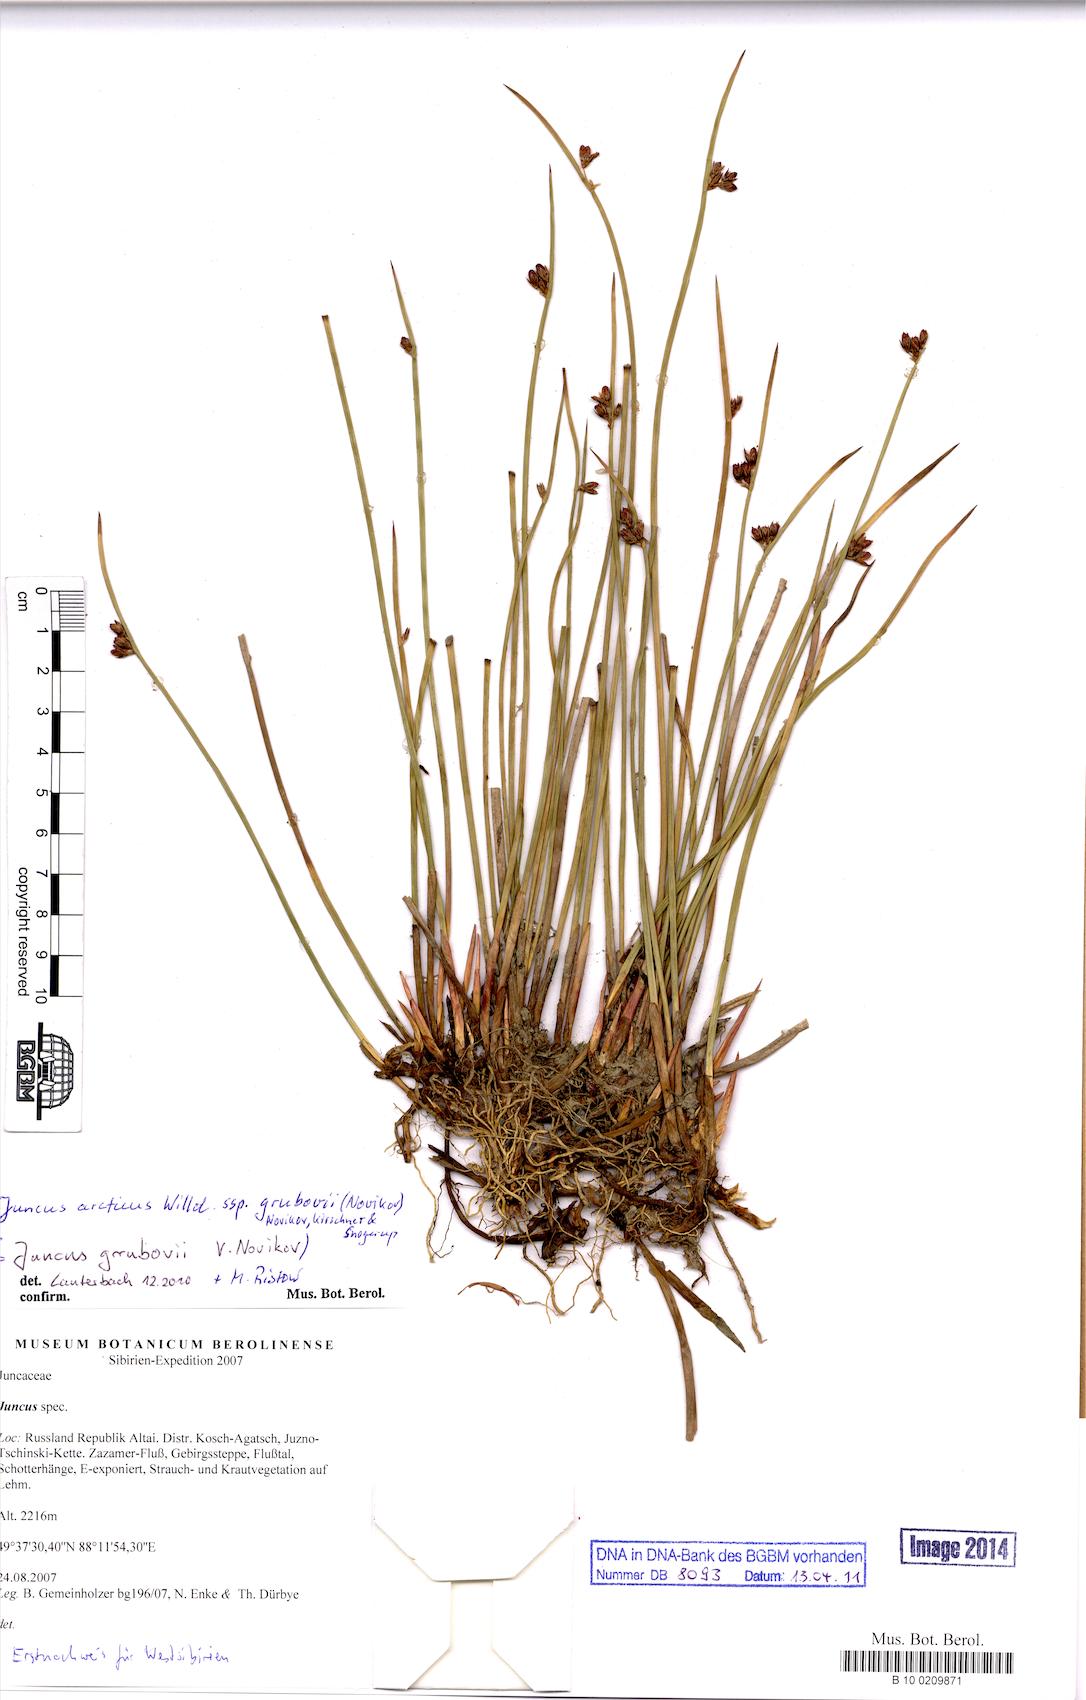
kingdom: Plantae
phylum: Tracheophyta
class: Liliopsida
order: Poales
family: Juncaceae
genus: Juncus
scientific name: Juncus arcticus
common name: Arctic rush
